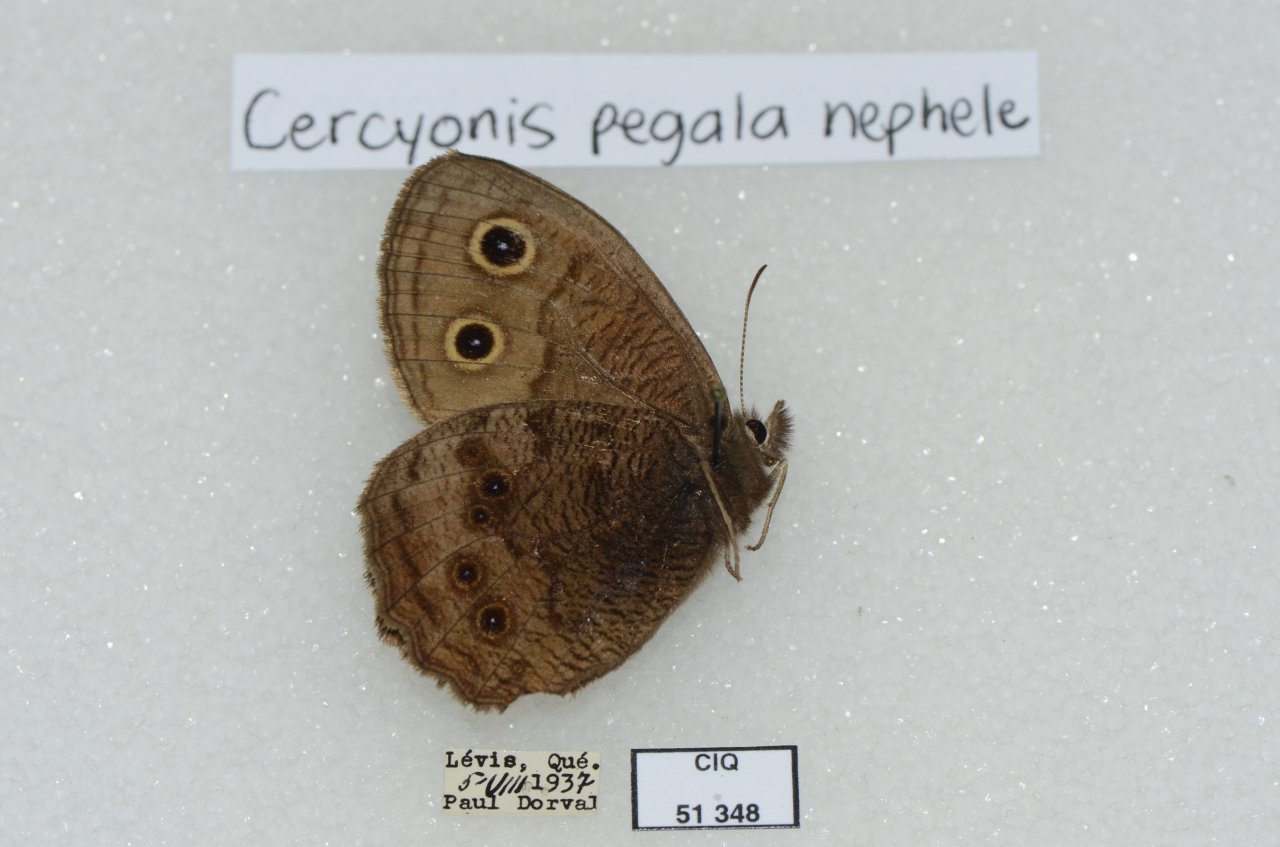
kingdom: Animalia
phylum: Arthropoda
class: Insecta
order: Lepidoptera
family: Nymphalidae
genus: Cercyonis
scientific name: Cercyonis pegala
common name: Common Wood-Nymph
